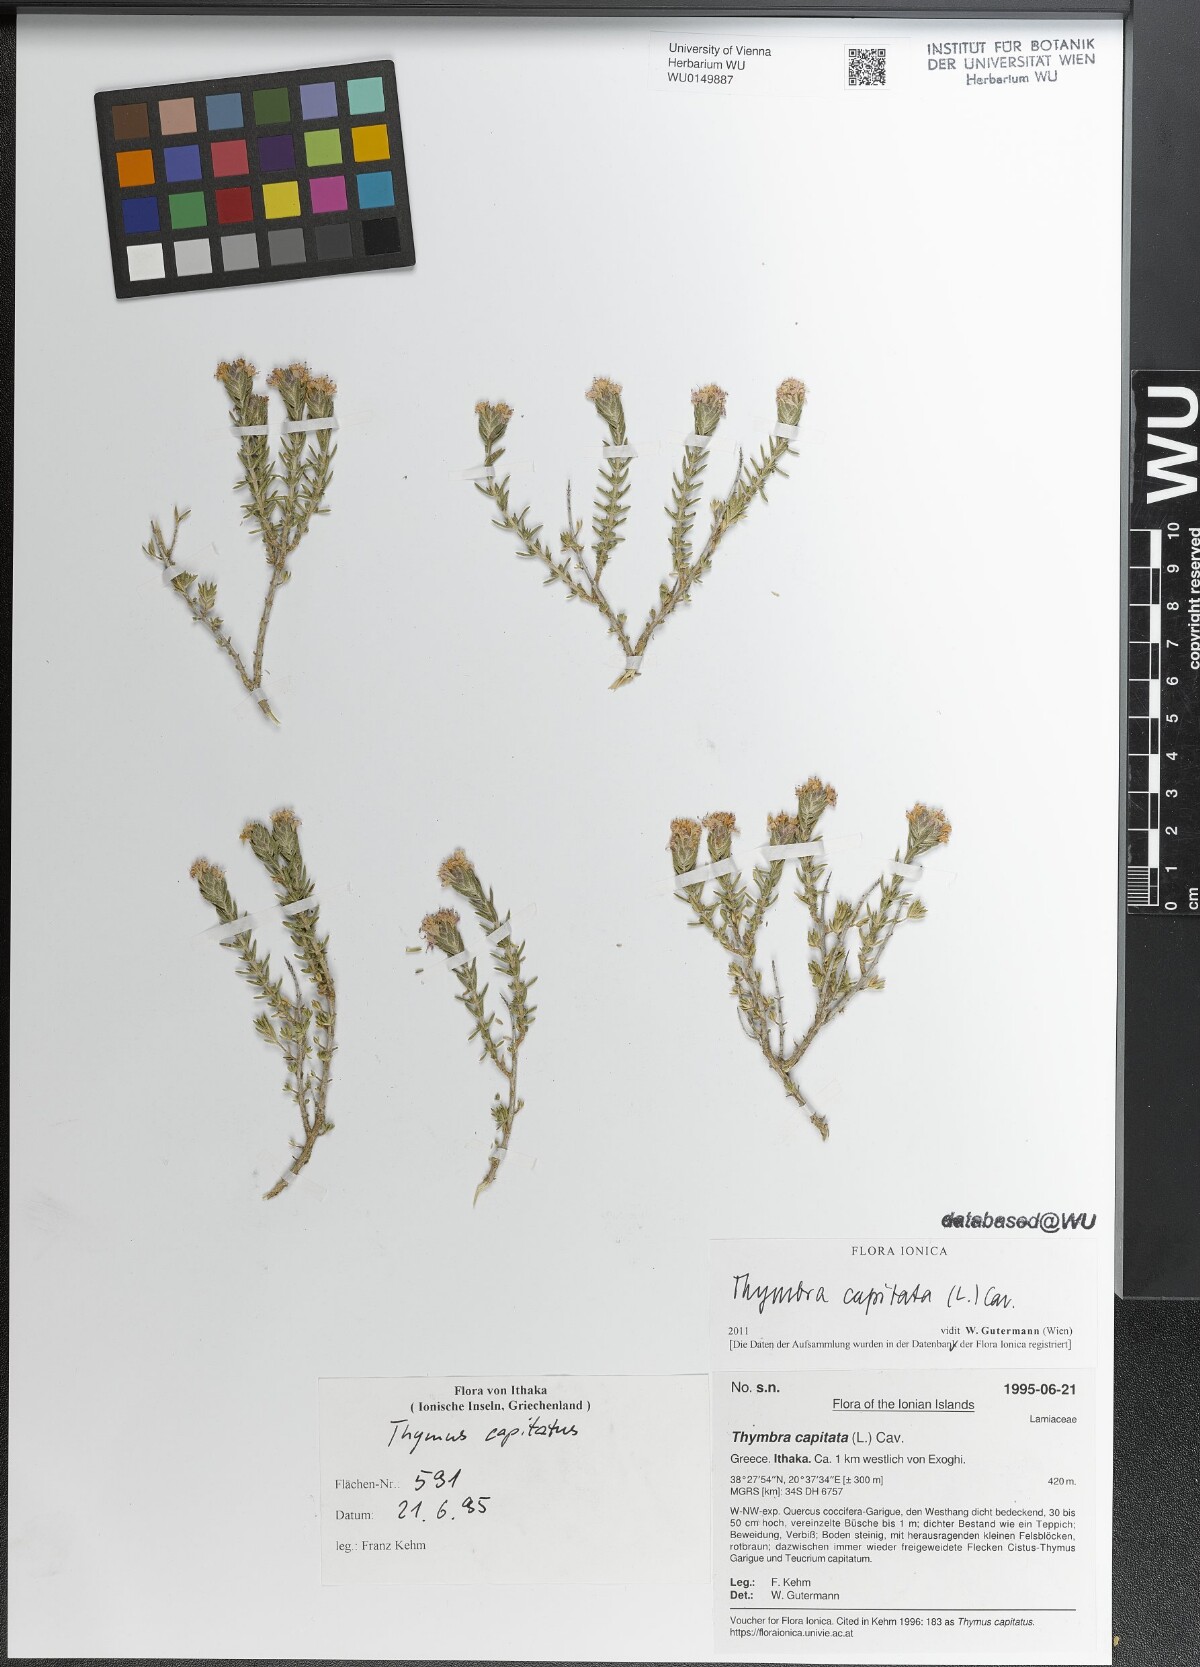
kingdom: Plantae
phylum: Tracheophyta
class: Magnoliopsida
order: Lamiales
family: Lamiaceae
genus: Thymbra
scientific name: Thymbra capitata
